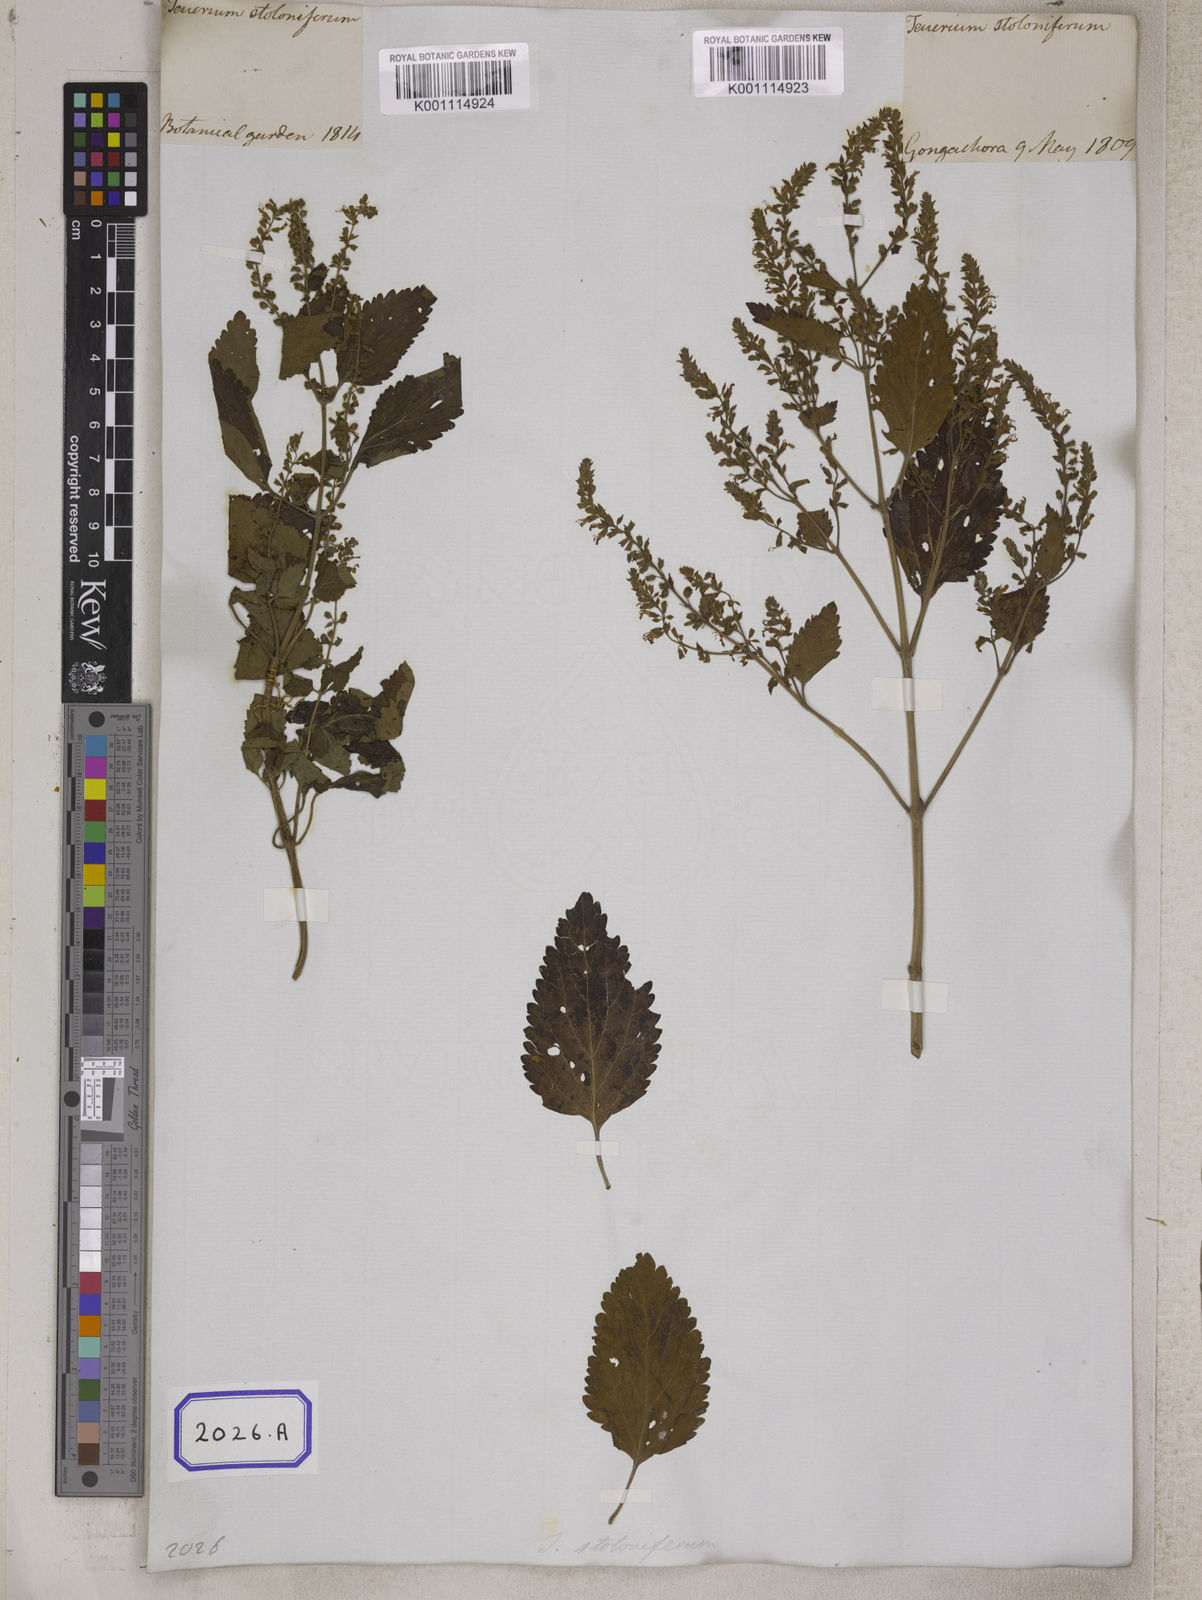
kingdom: Plantae
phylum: Tracheophyta
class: Magnoliopsida
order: Lamiales
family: Lamiaceae
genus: Teucrium
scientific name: Teucrium
